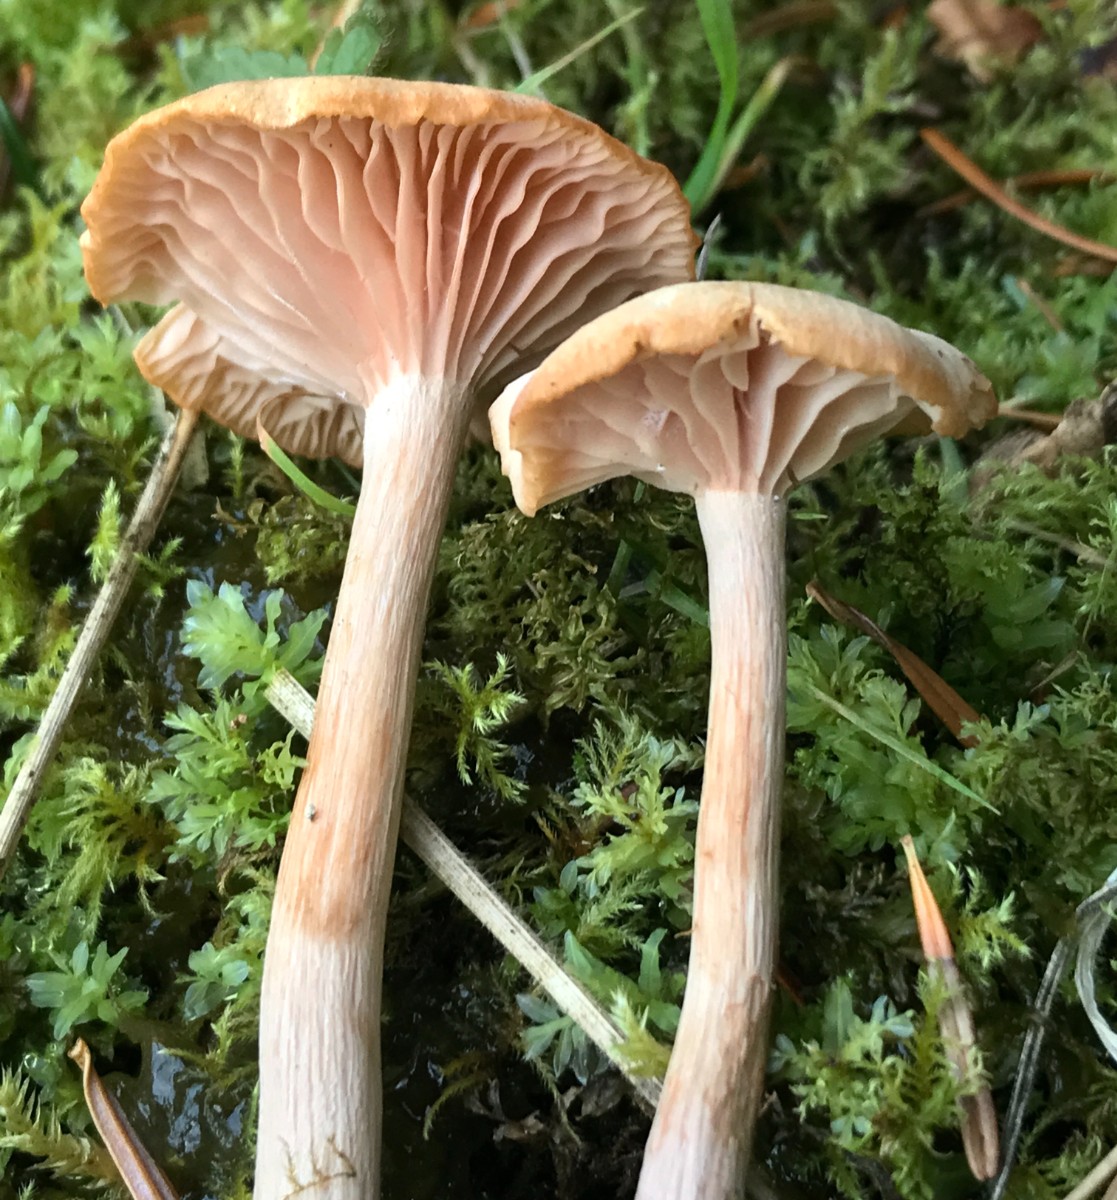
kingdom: Fungi
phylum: Basidiomycota
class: Agaricomycetes
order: Agaricales
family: Hydnangiaceae
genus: Laccaria
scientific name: Laccaria laccata
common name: rød ametysthat
